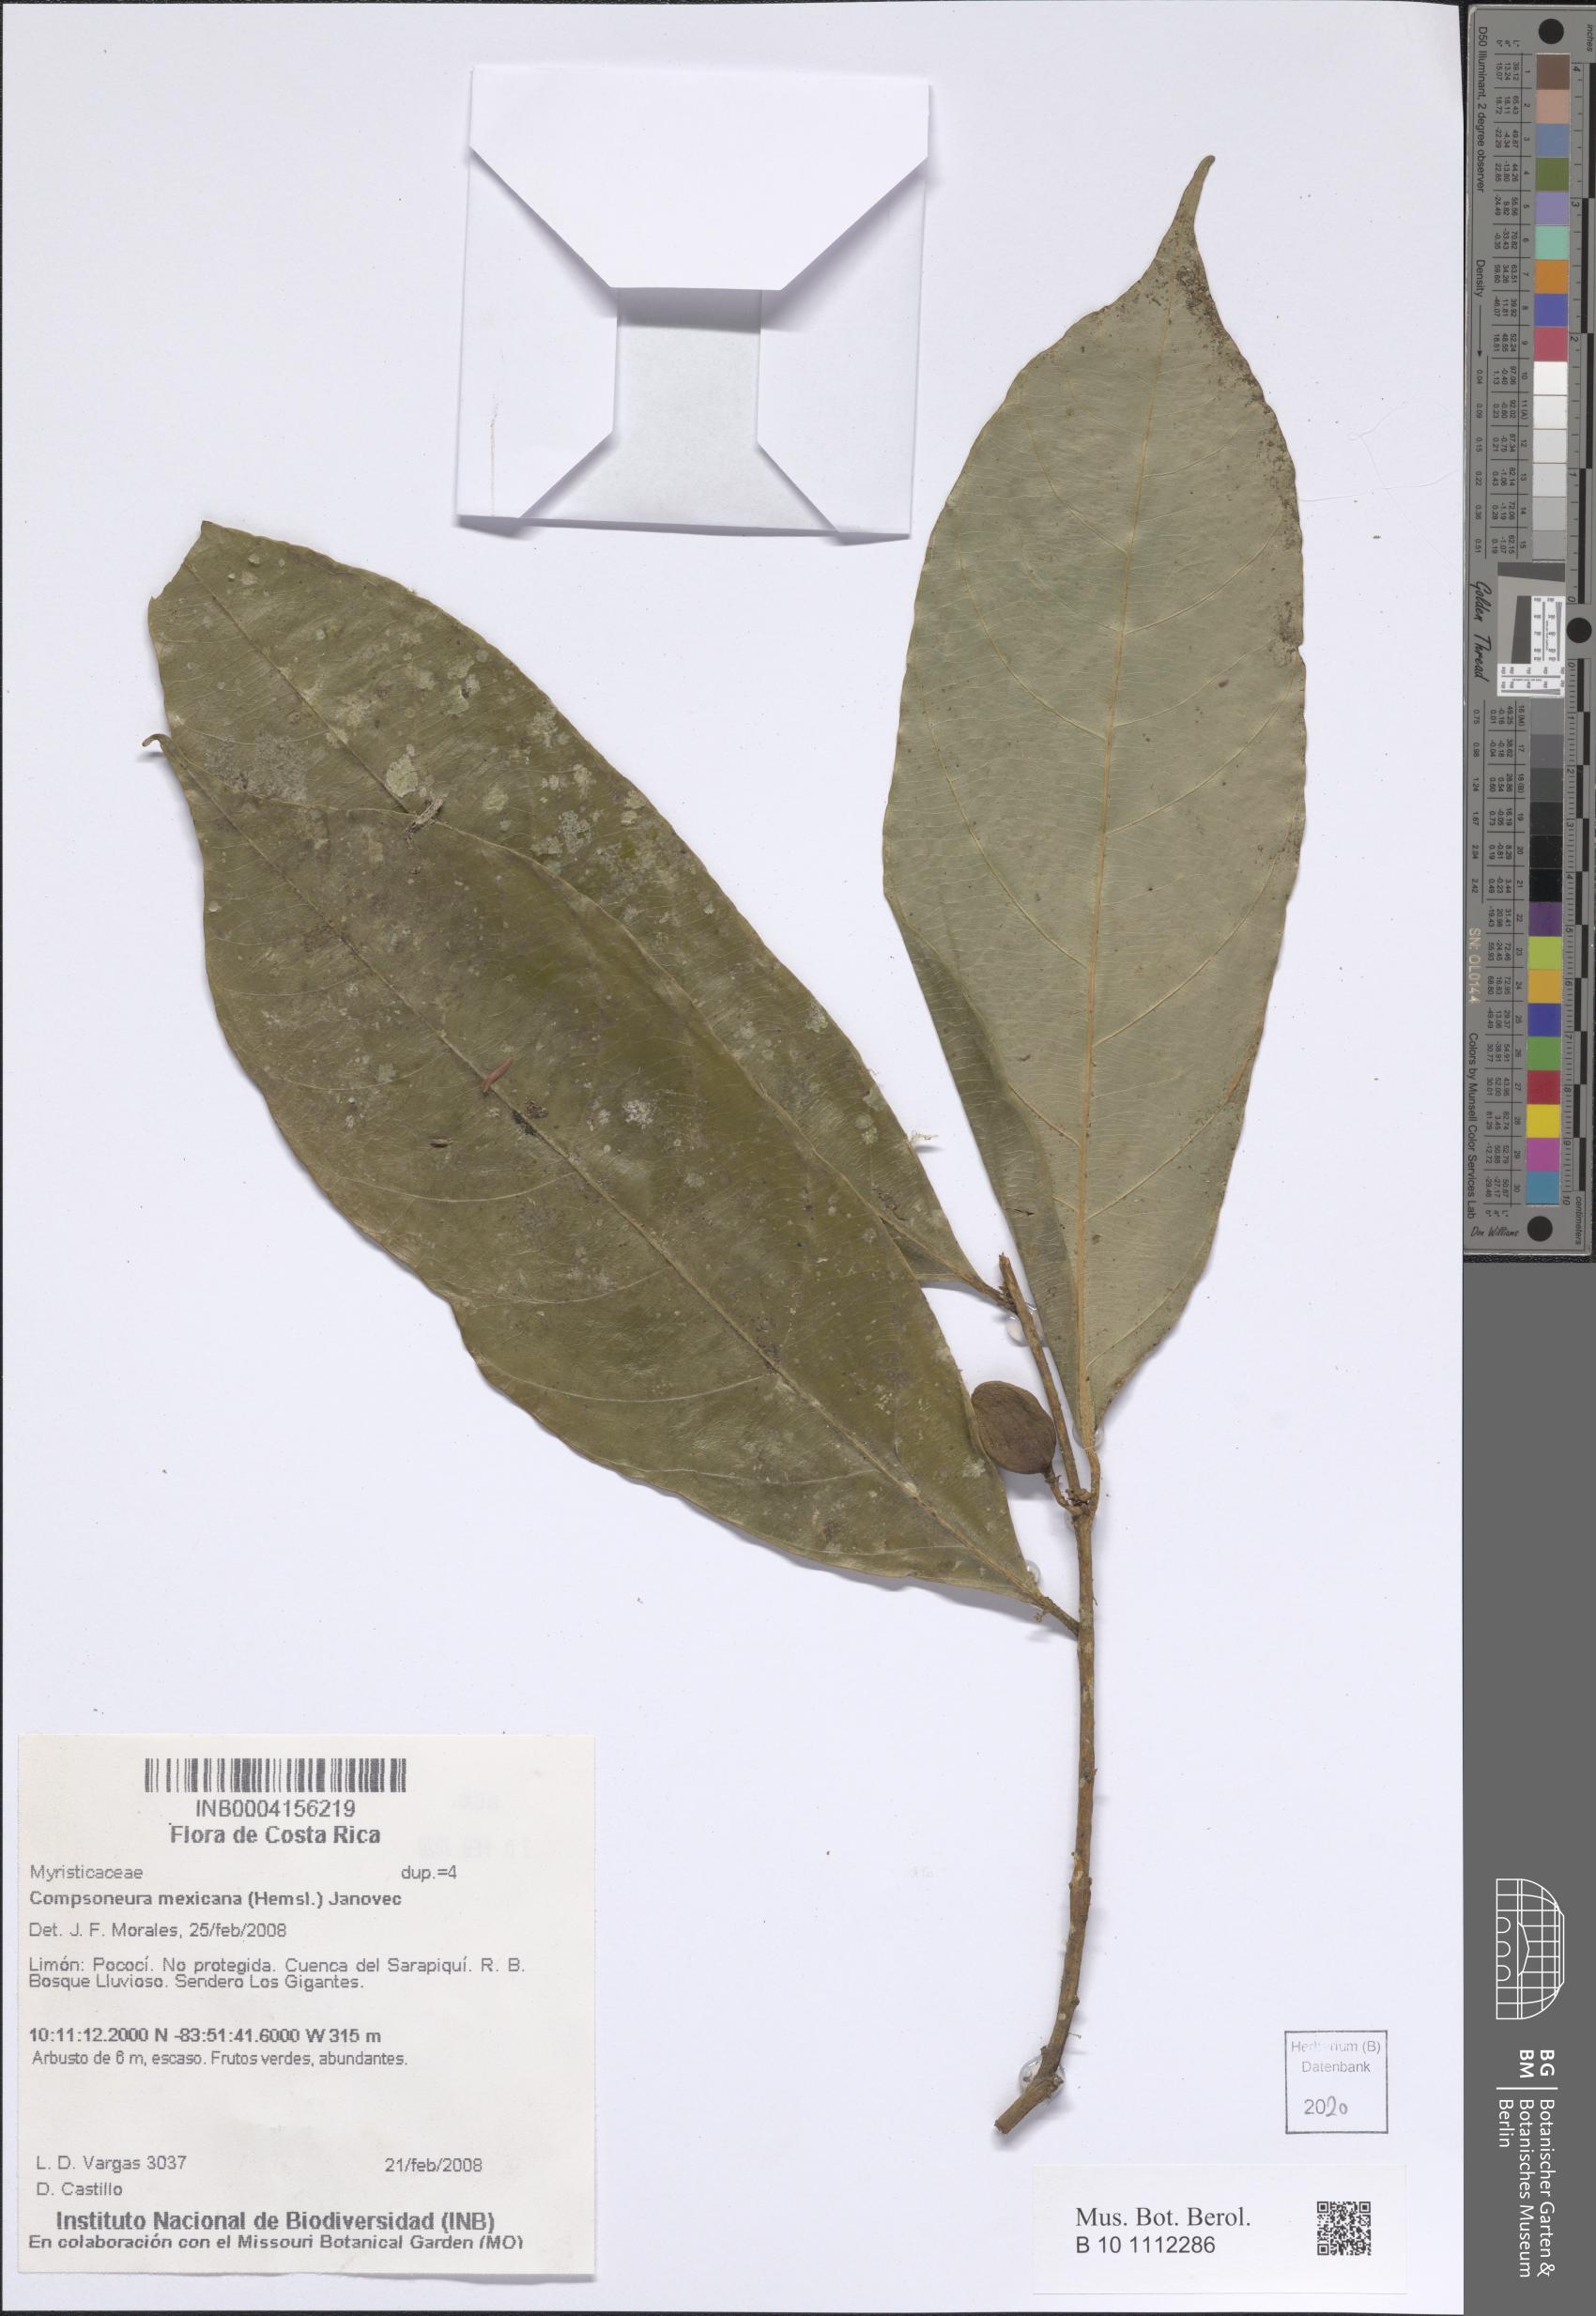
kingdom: Plantae
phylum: Tracheophyta
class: Magnoliopsida
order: Magnoliales
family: Myristicaceae
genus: Compsoneura
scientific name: Compsoneura mexicana
